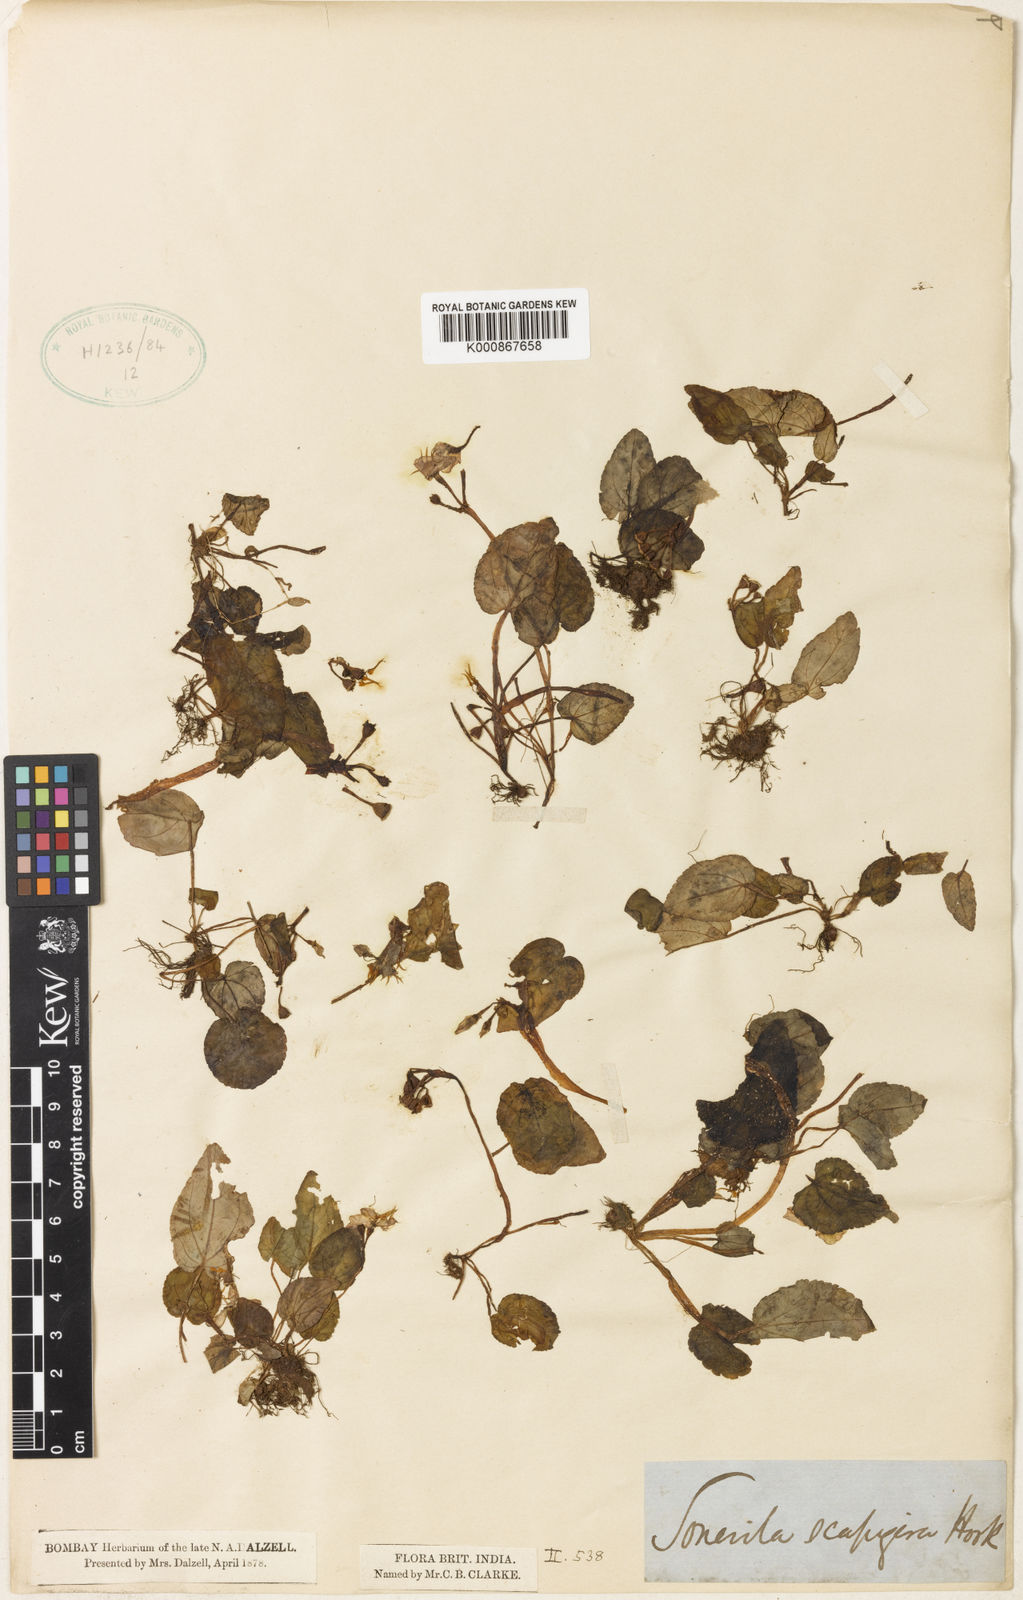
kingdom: Plantae
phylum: Tracheophyta
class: Magnoliopsida
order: Myrtales
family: Melastomataceae
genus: Sonerila
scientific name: Sonerila wallichii
